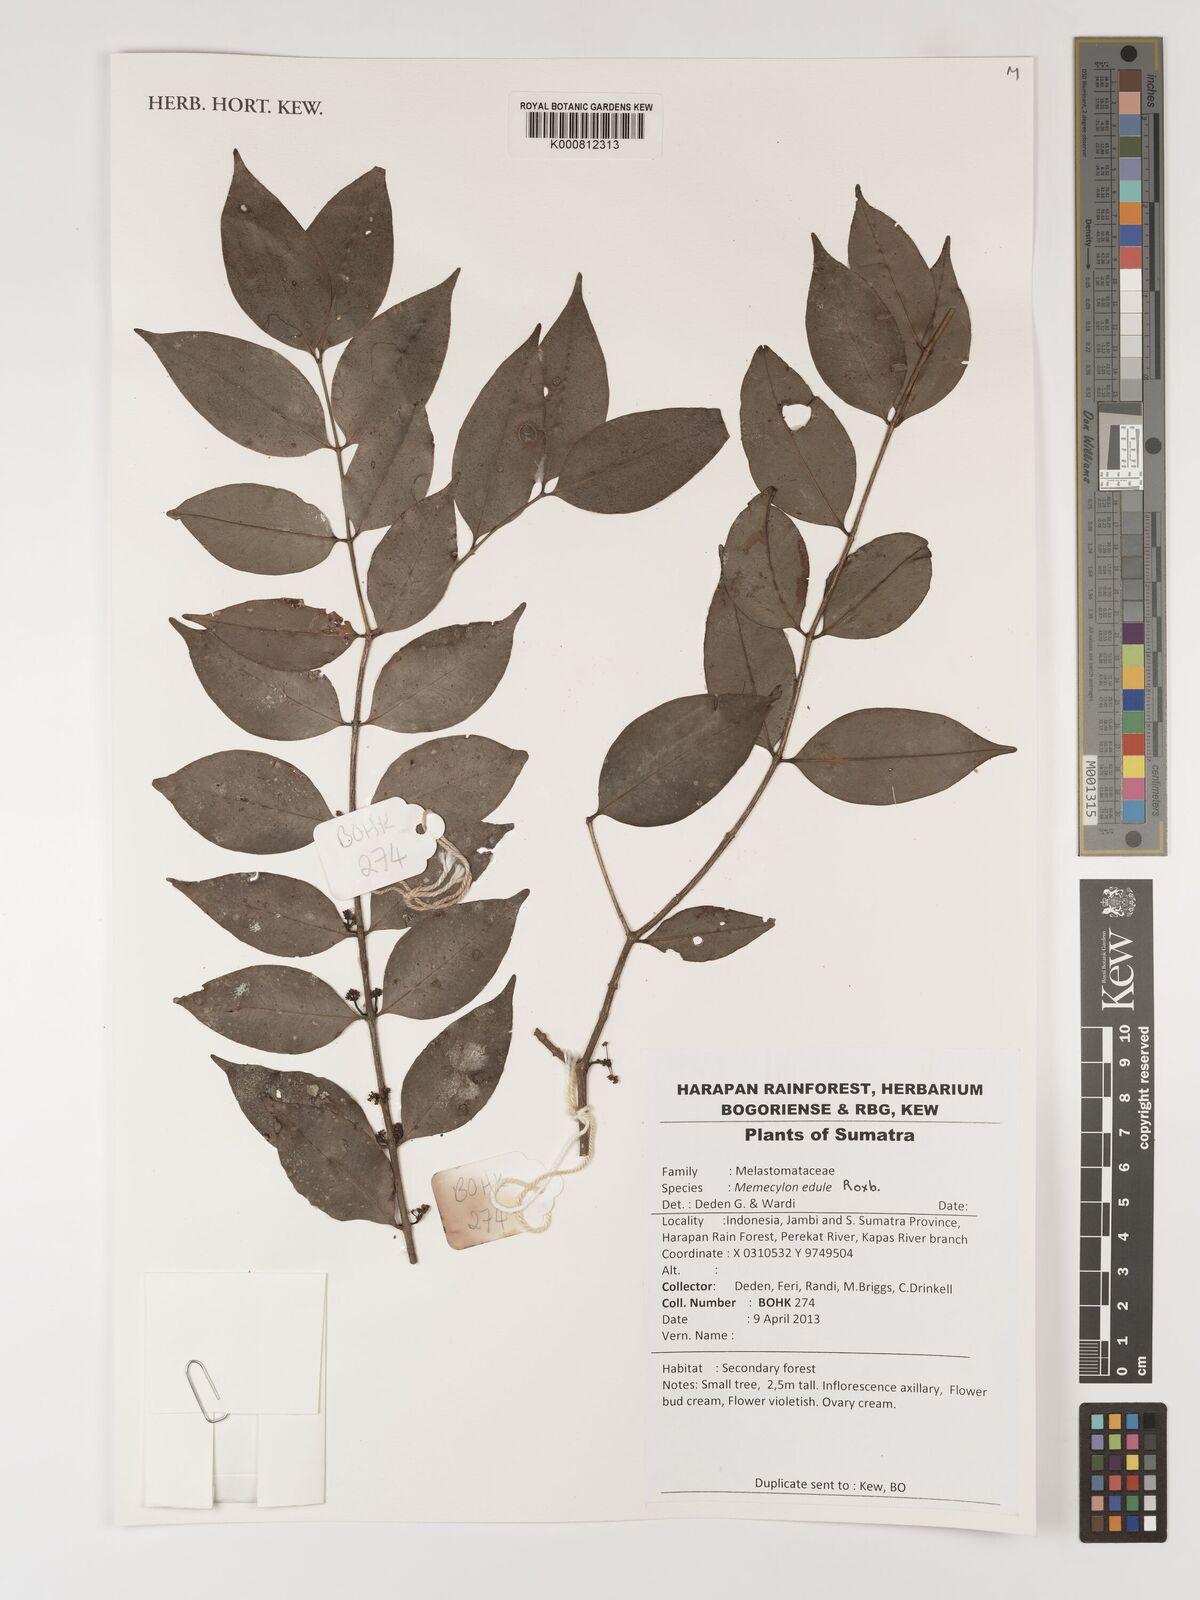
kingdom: Plantae
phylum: Tracheophyta
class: Magnoliopsida
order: Myrtales
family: Melastomataceae
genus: Memecylon
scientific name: Memecylon edule
